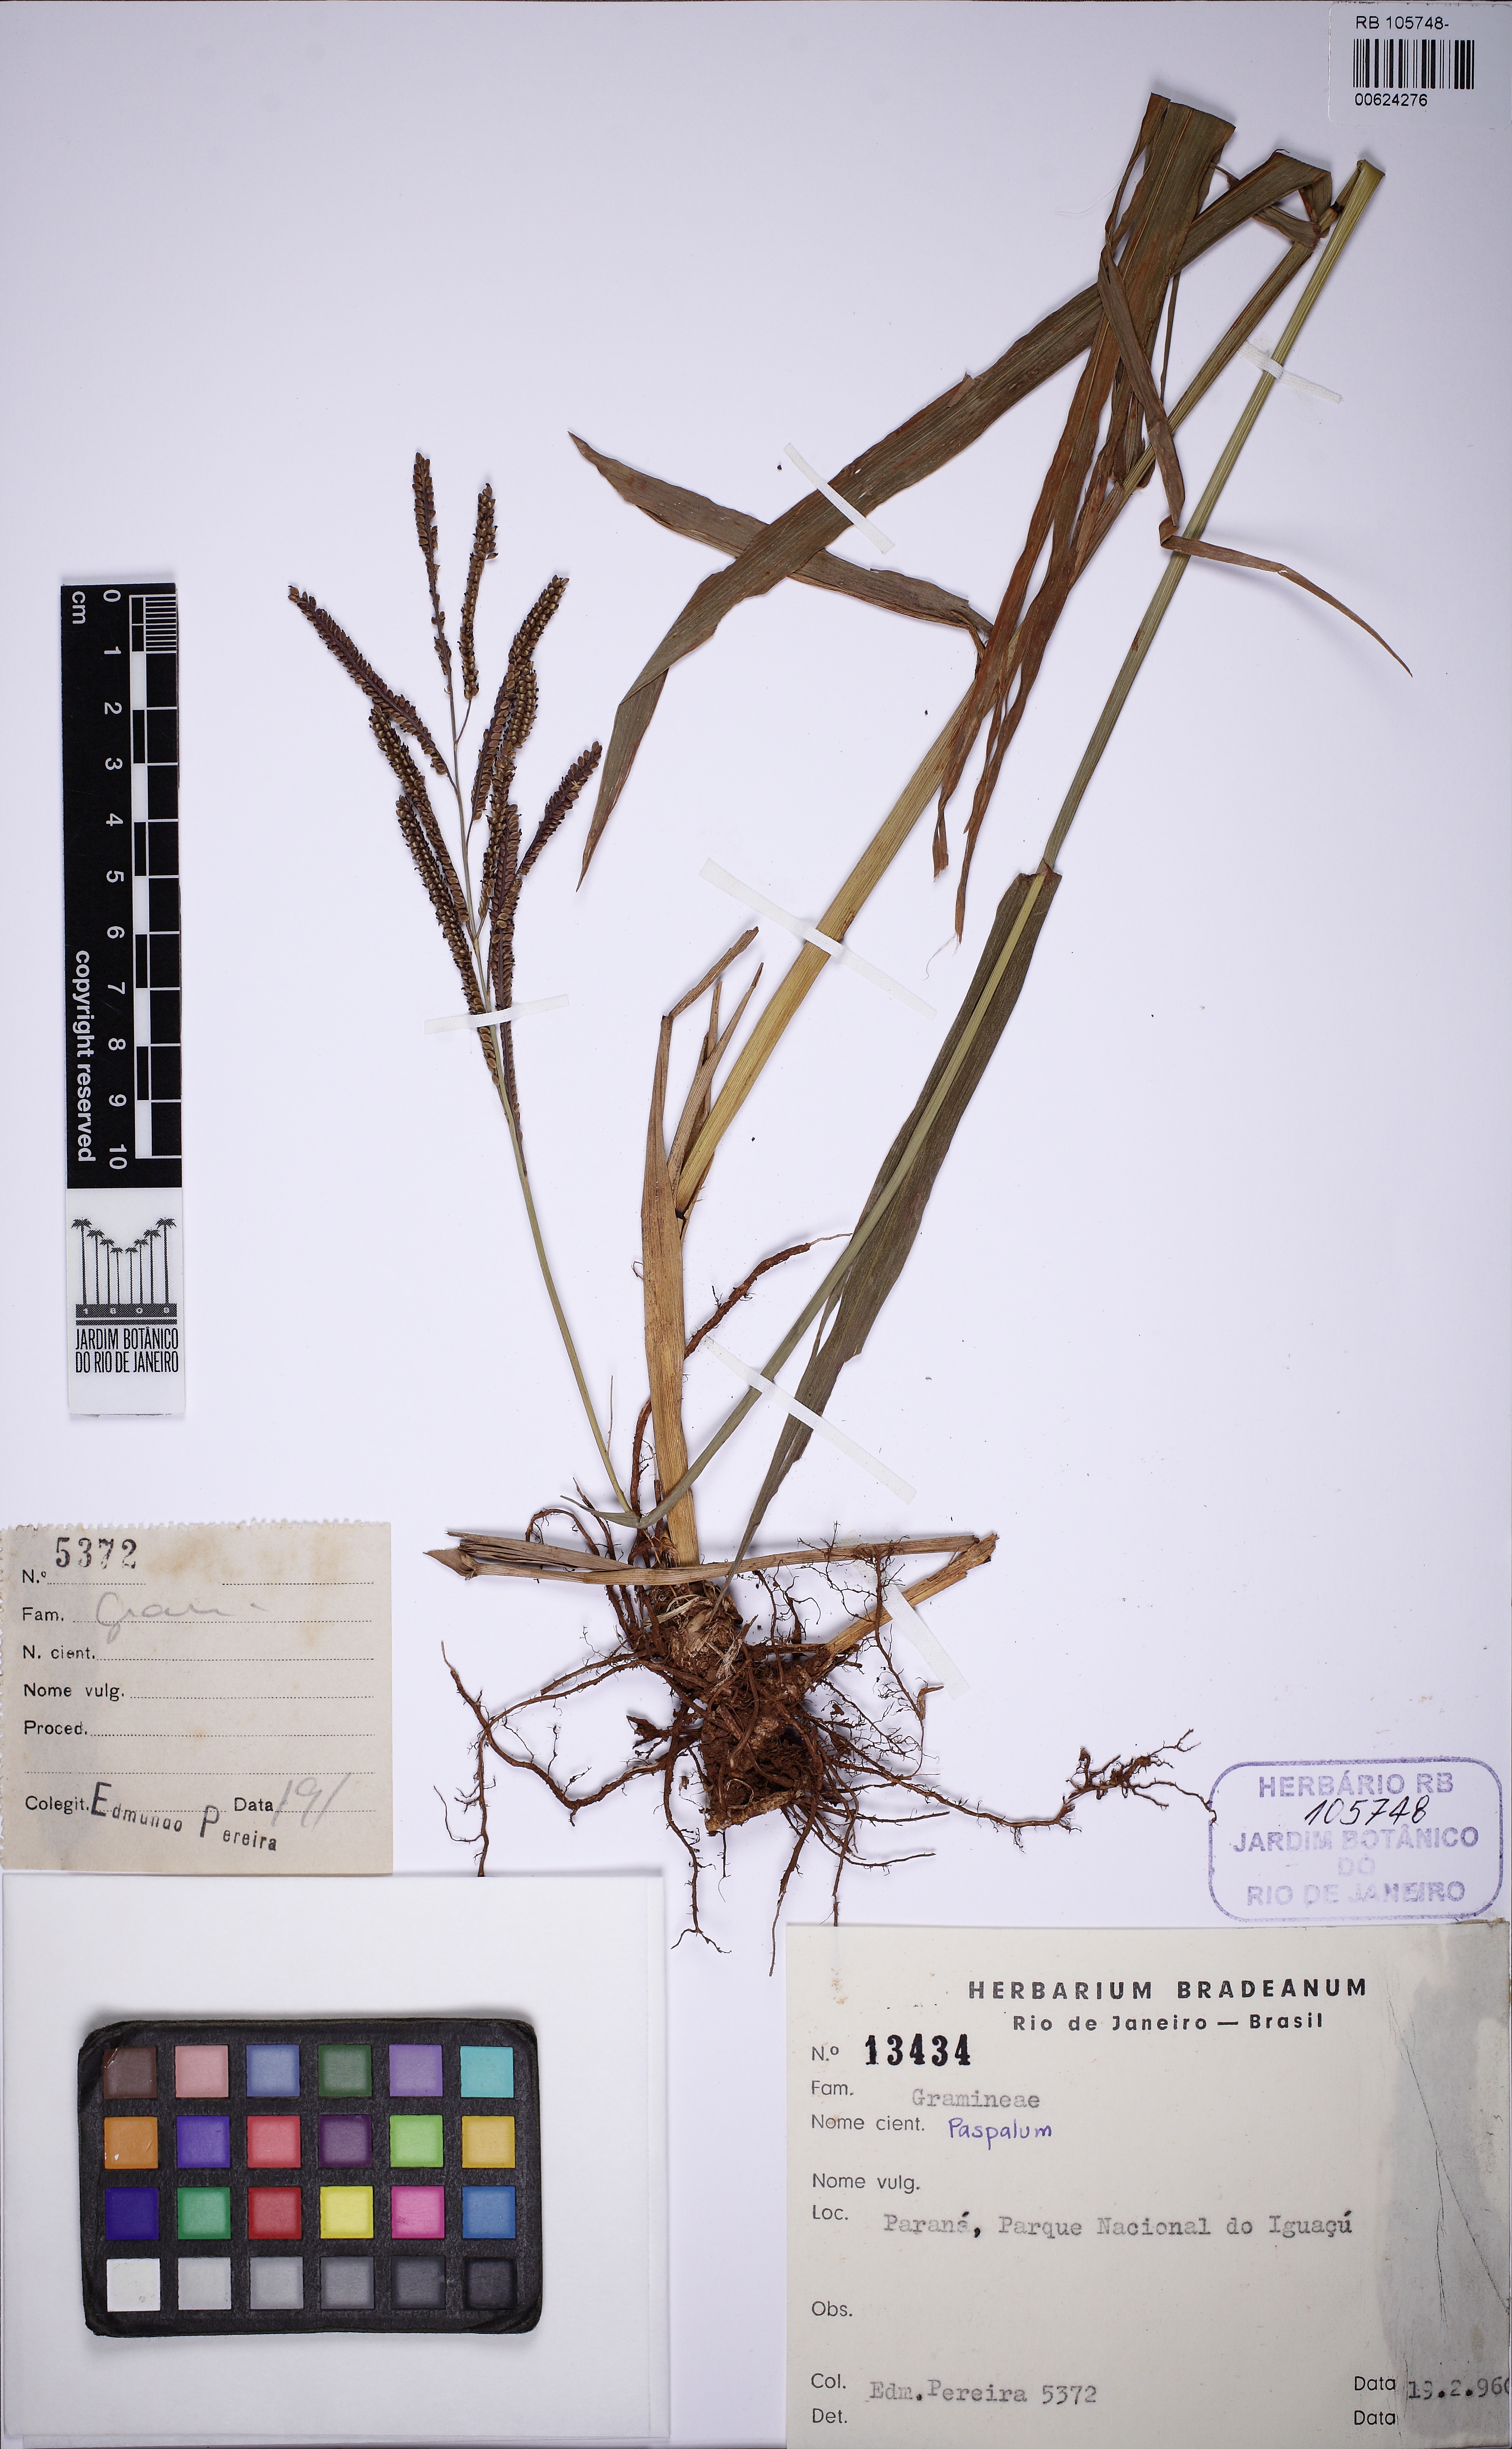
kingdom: Plantae
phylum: Tracheophyta
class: Liliopsida
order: Poales
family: Poaceae
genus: Paspalum
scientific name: Paspalum
